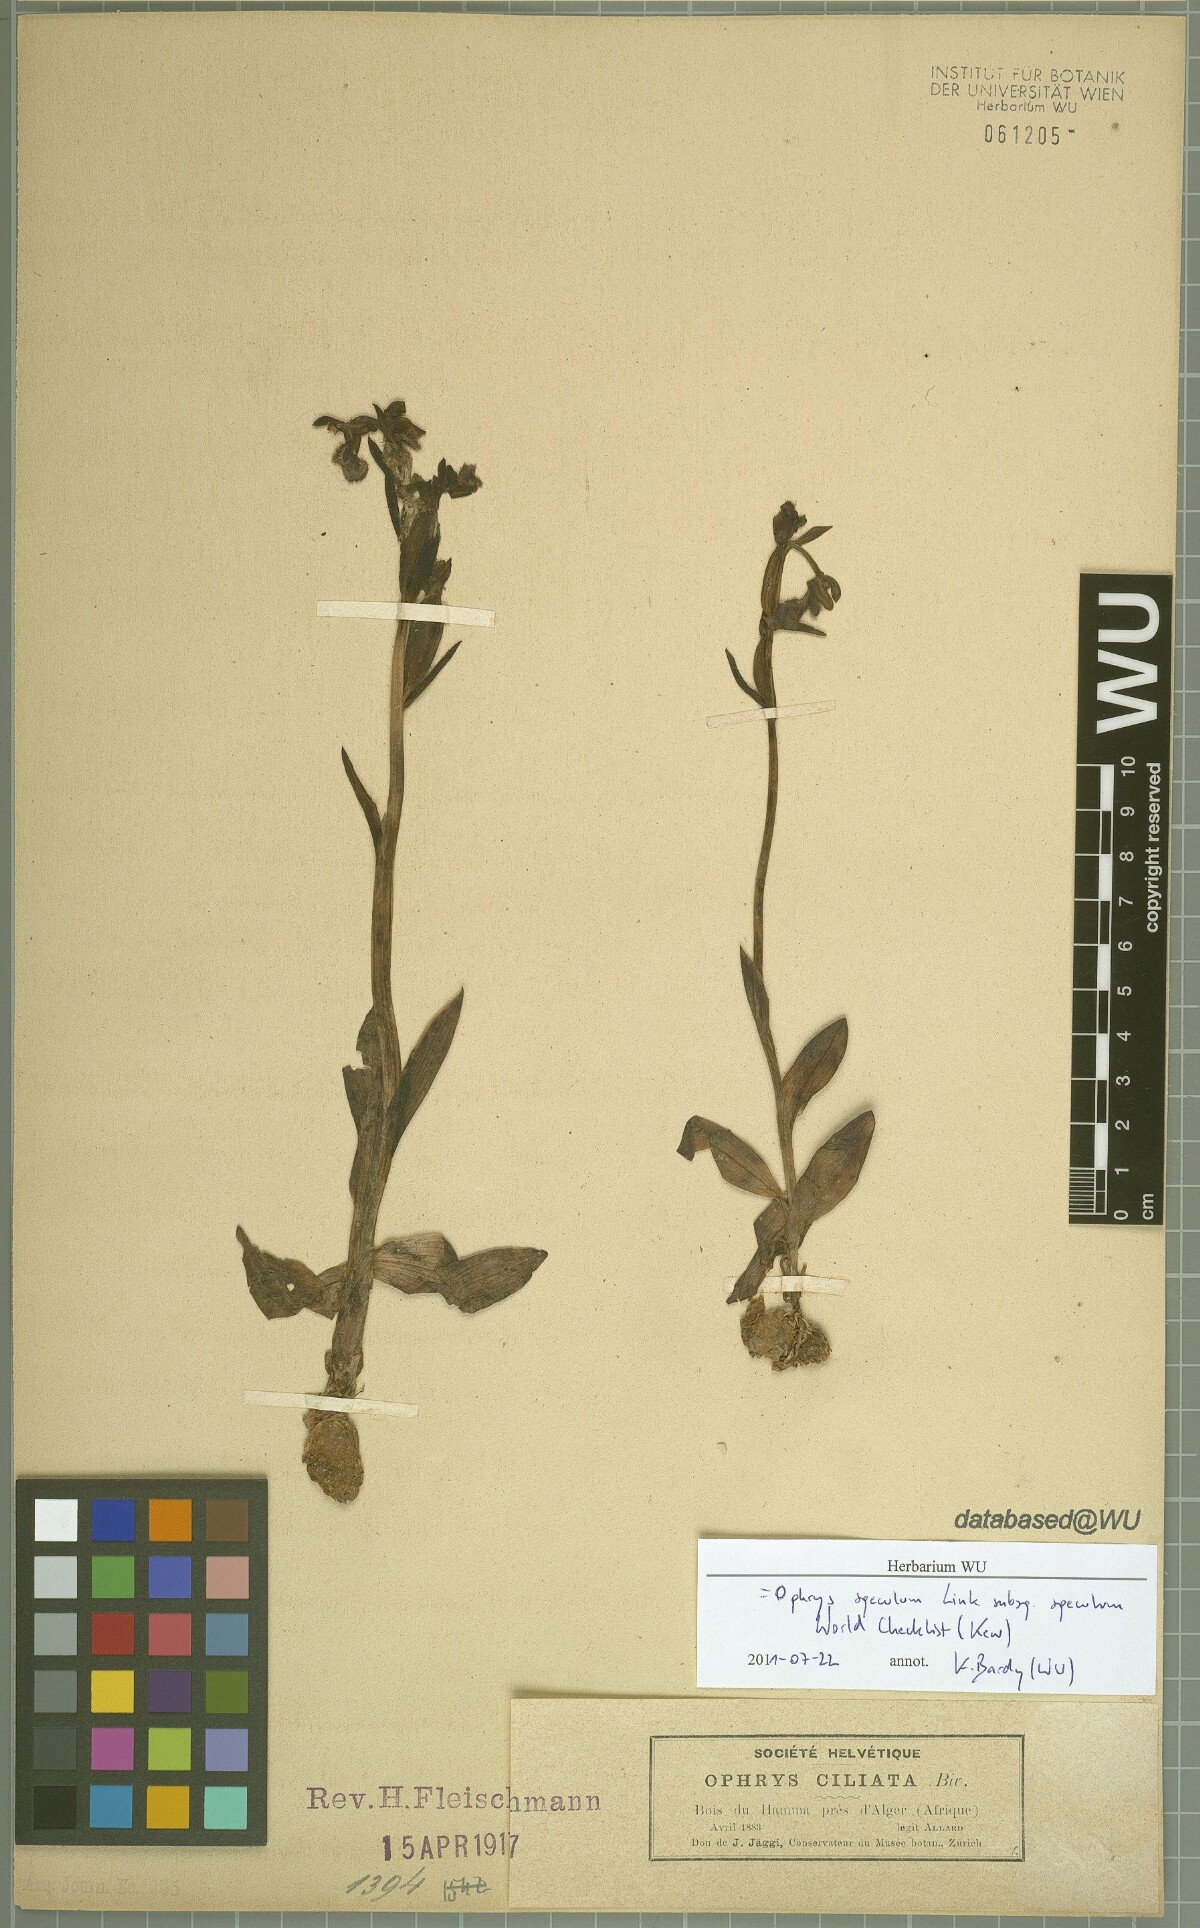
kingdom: Plantae
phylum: Tracheophyta
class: Liliopsida
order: Asparagales
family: Orchidaceae
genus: Ophrys
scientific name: Ophrys speculum
